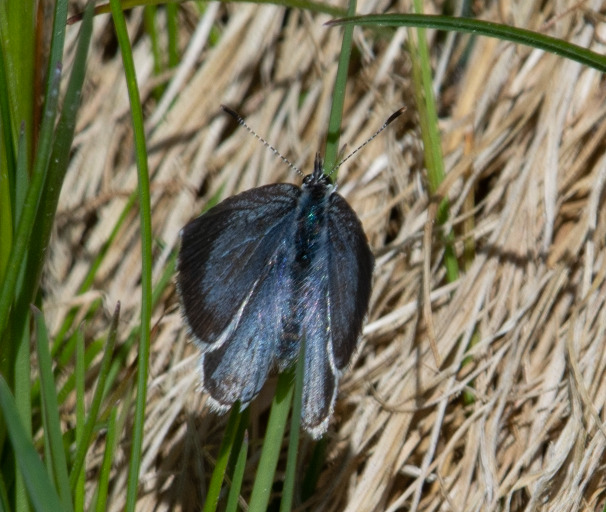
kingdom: Animalia
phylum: Arthropoda
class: Insecta
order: Lepidoptera
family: Lycaenidae
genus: Celastrina
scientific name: Celastrina argiolus
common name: Skovblåfugl
